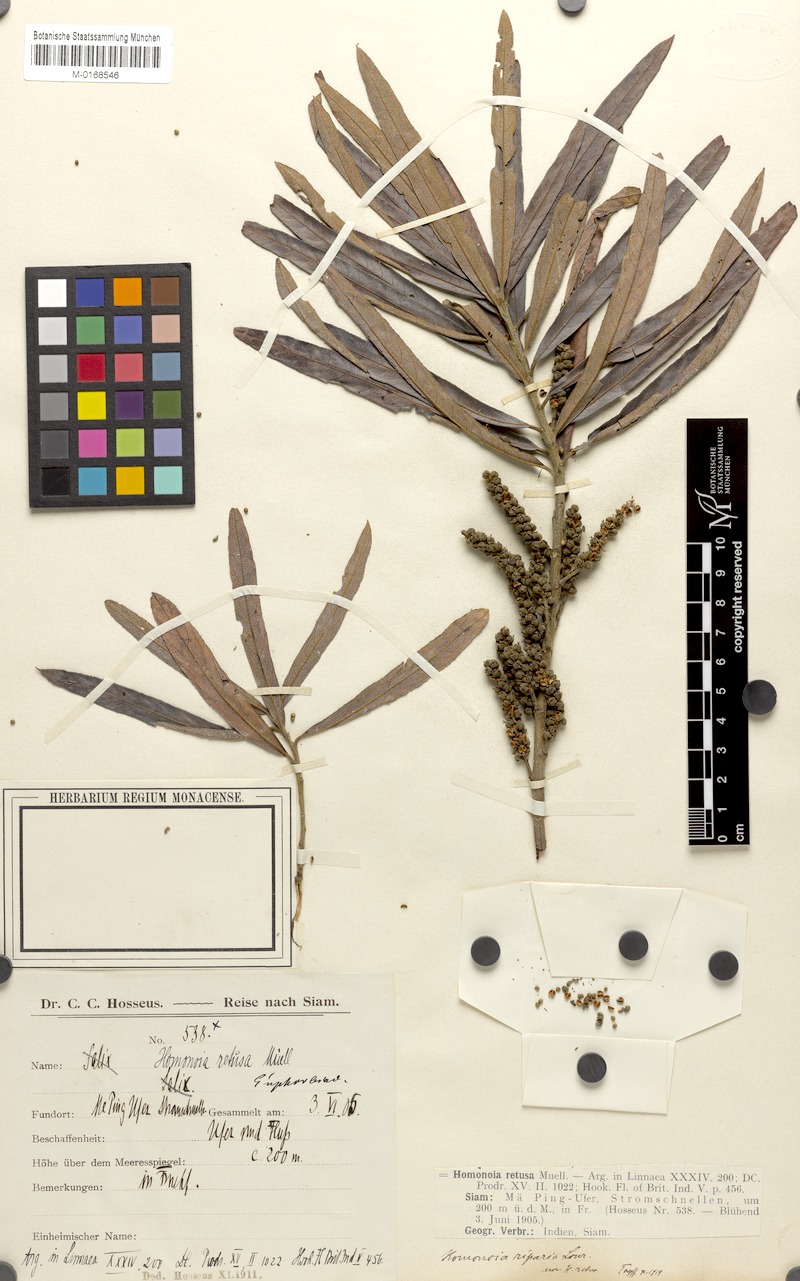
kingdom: Plantae
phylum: Tracheophyta
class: Magnoliopsida
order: Malpighiales
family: Euphorbiaceae
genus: Homonoia
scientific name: Homonoia riparia
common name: Willow-leaved water croton
